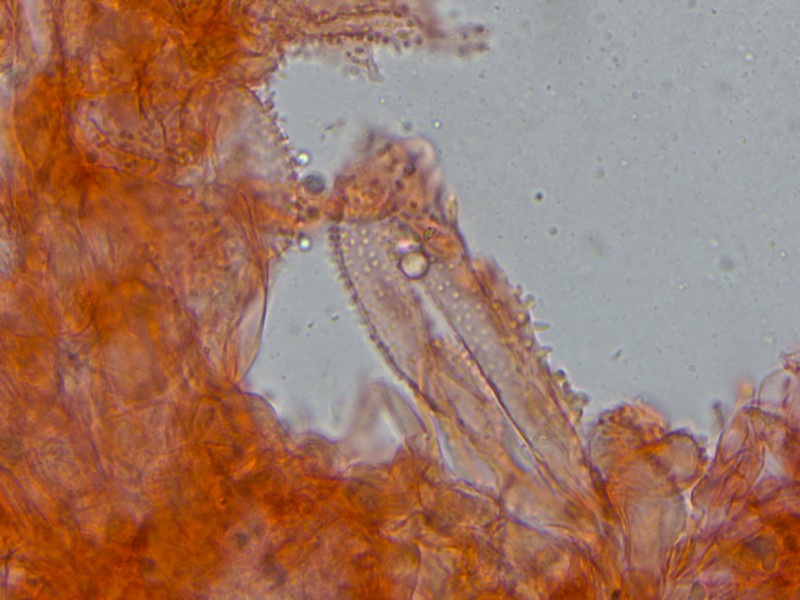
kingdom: Fungi
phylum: Basidiomycota
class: Agaricomycetes
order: Agaricales
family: Mycenaceae
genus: Mycena
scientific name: Mycena flavescens
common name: grågul huesvamp
